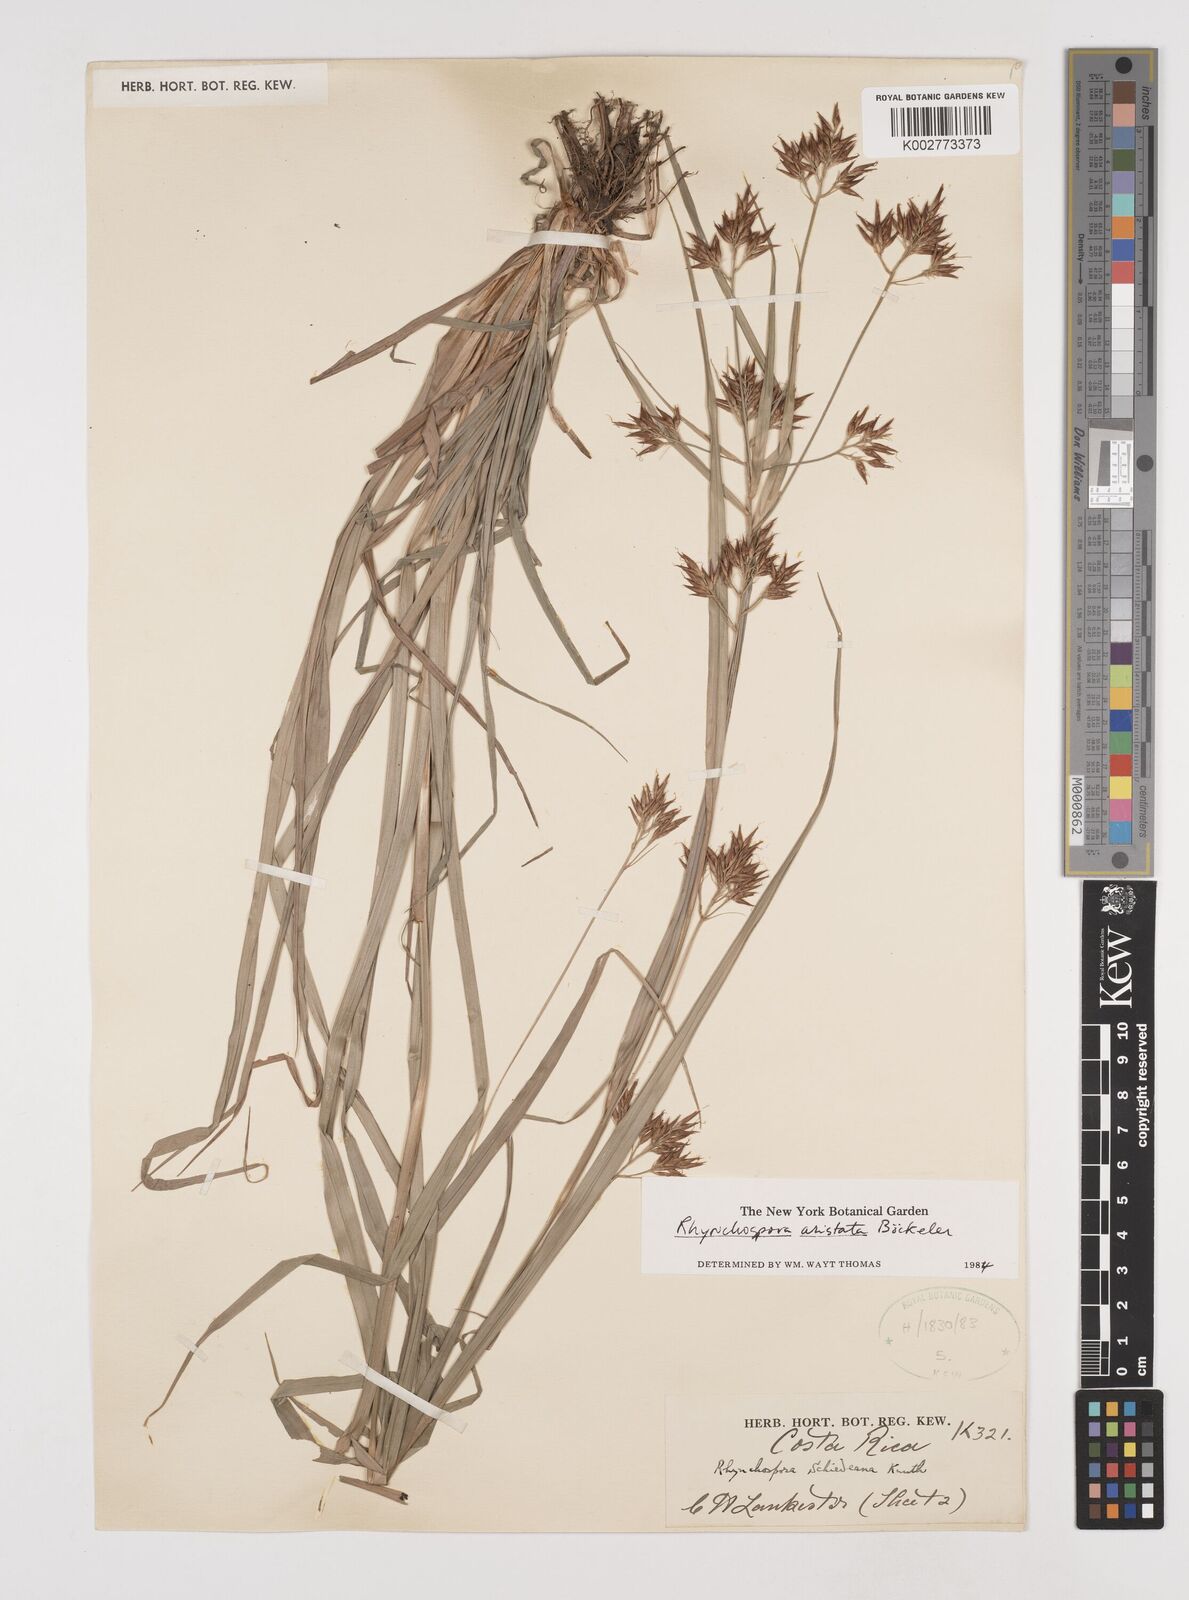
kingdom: Plantae
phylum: Tracheophyta
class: Liliopsida
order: Poales
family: Cyperaceae
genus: Rhynchospora
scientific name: Rhynchospora aristata
